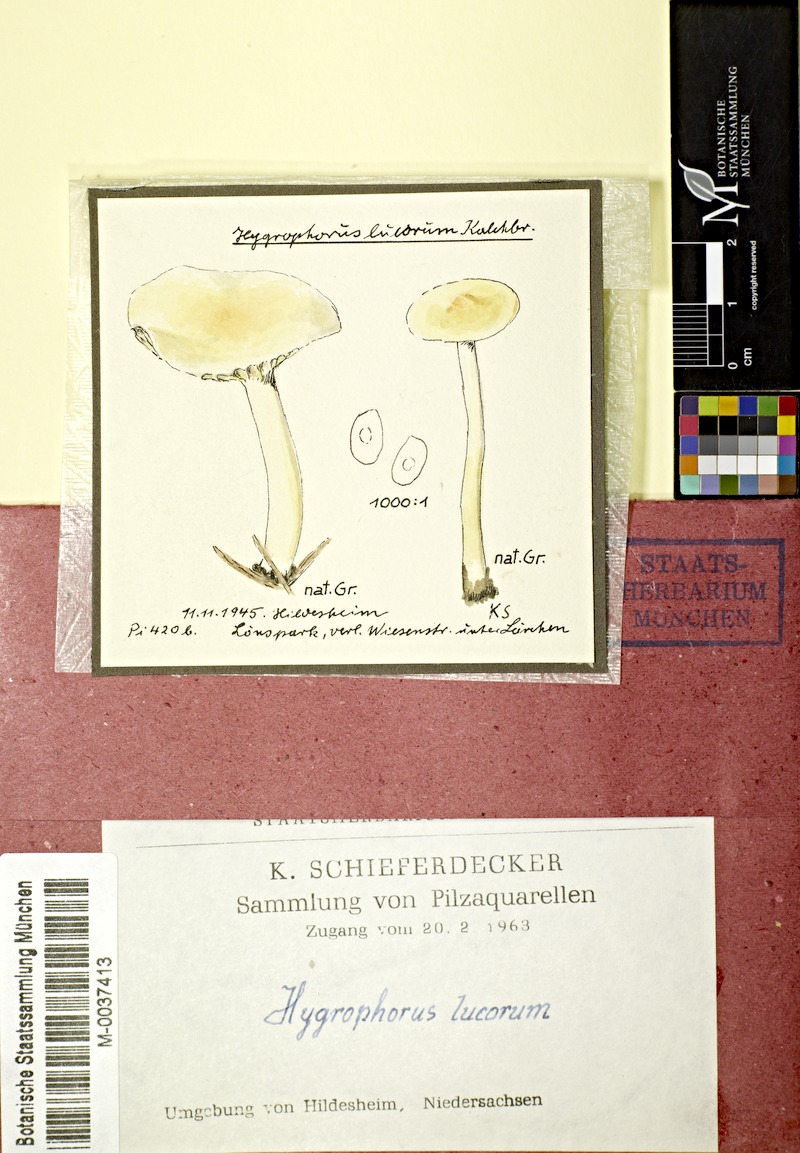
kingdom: Plantae
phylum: Tracheophyta
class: Pinopsida
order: Pinales
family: Pinaceae
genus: Larix
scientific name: Larix
